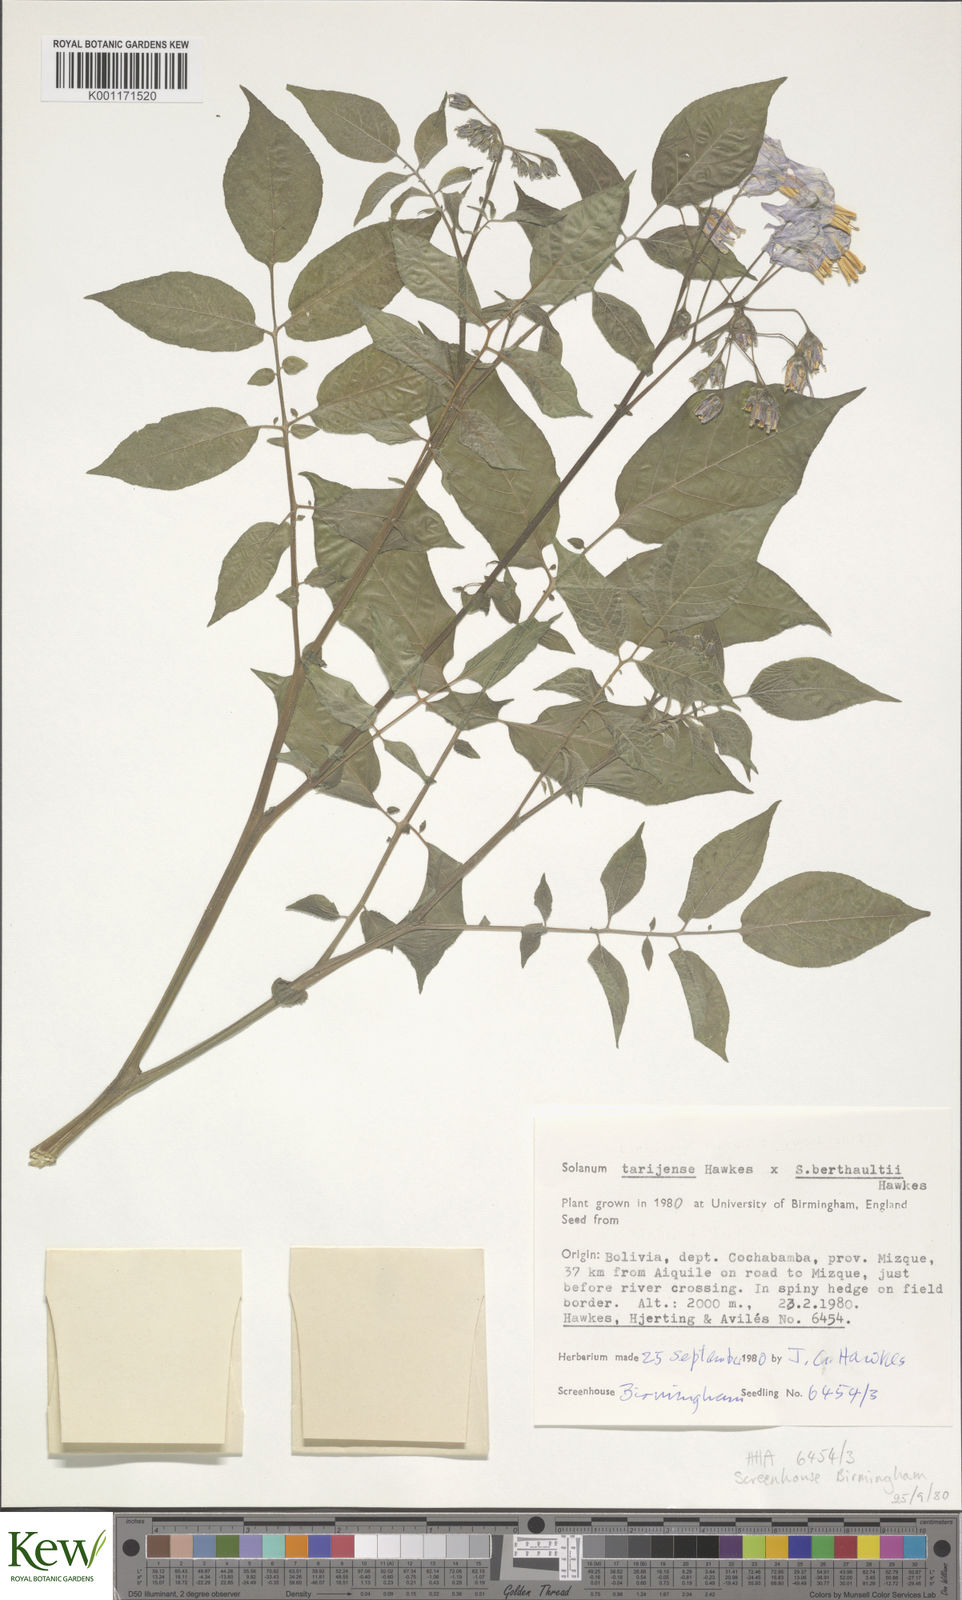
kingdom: Plantae
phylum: Tracheophyta
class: Magnoliopsida
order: Solanales
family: Solanaceae
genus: Solanum
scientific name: Solanum tarijense
